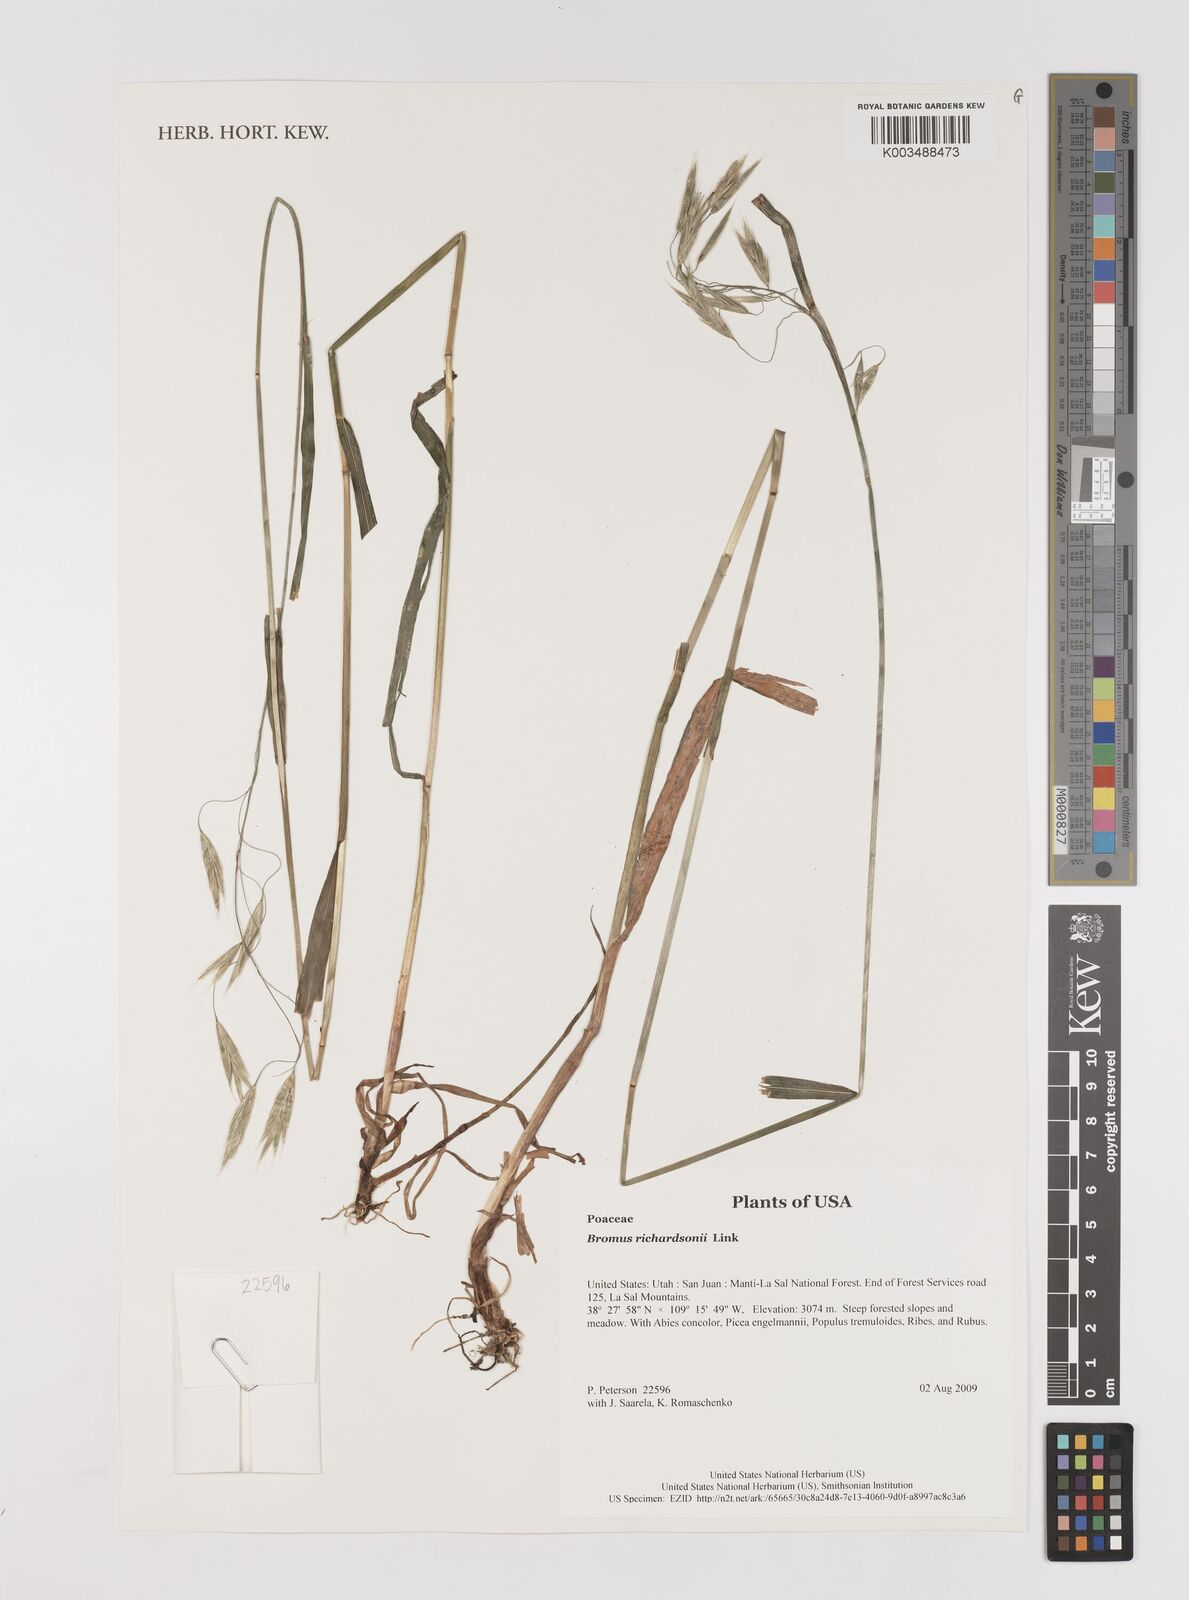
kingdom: Plantae
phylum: Tracheophyta
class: Liliopsida
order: Poales
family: Poaceae
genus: Bromus
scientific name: Bromus richardsonii
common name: Richardson's brome
